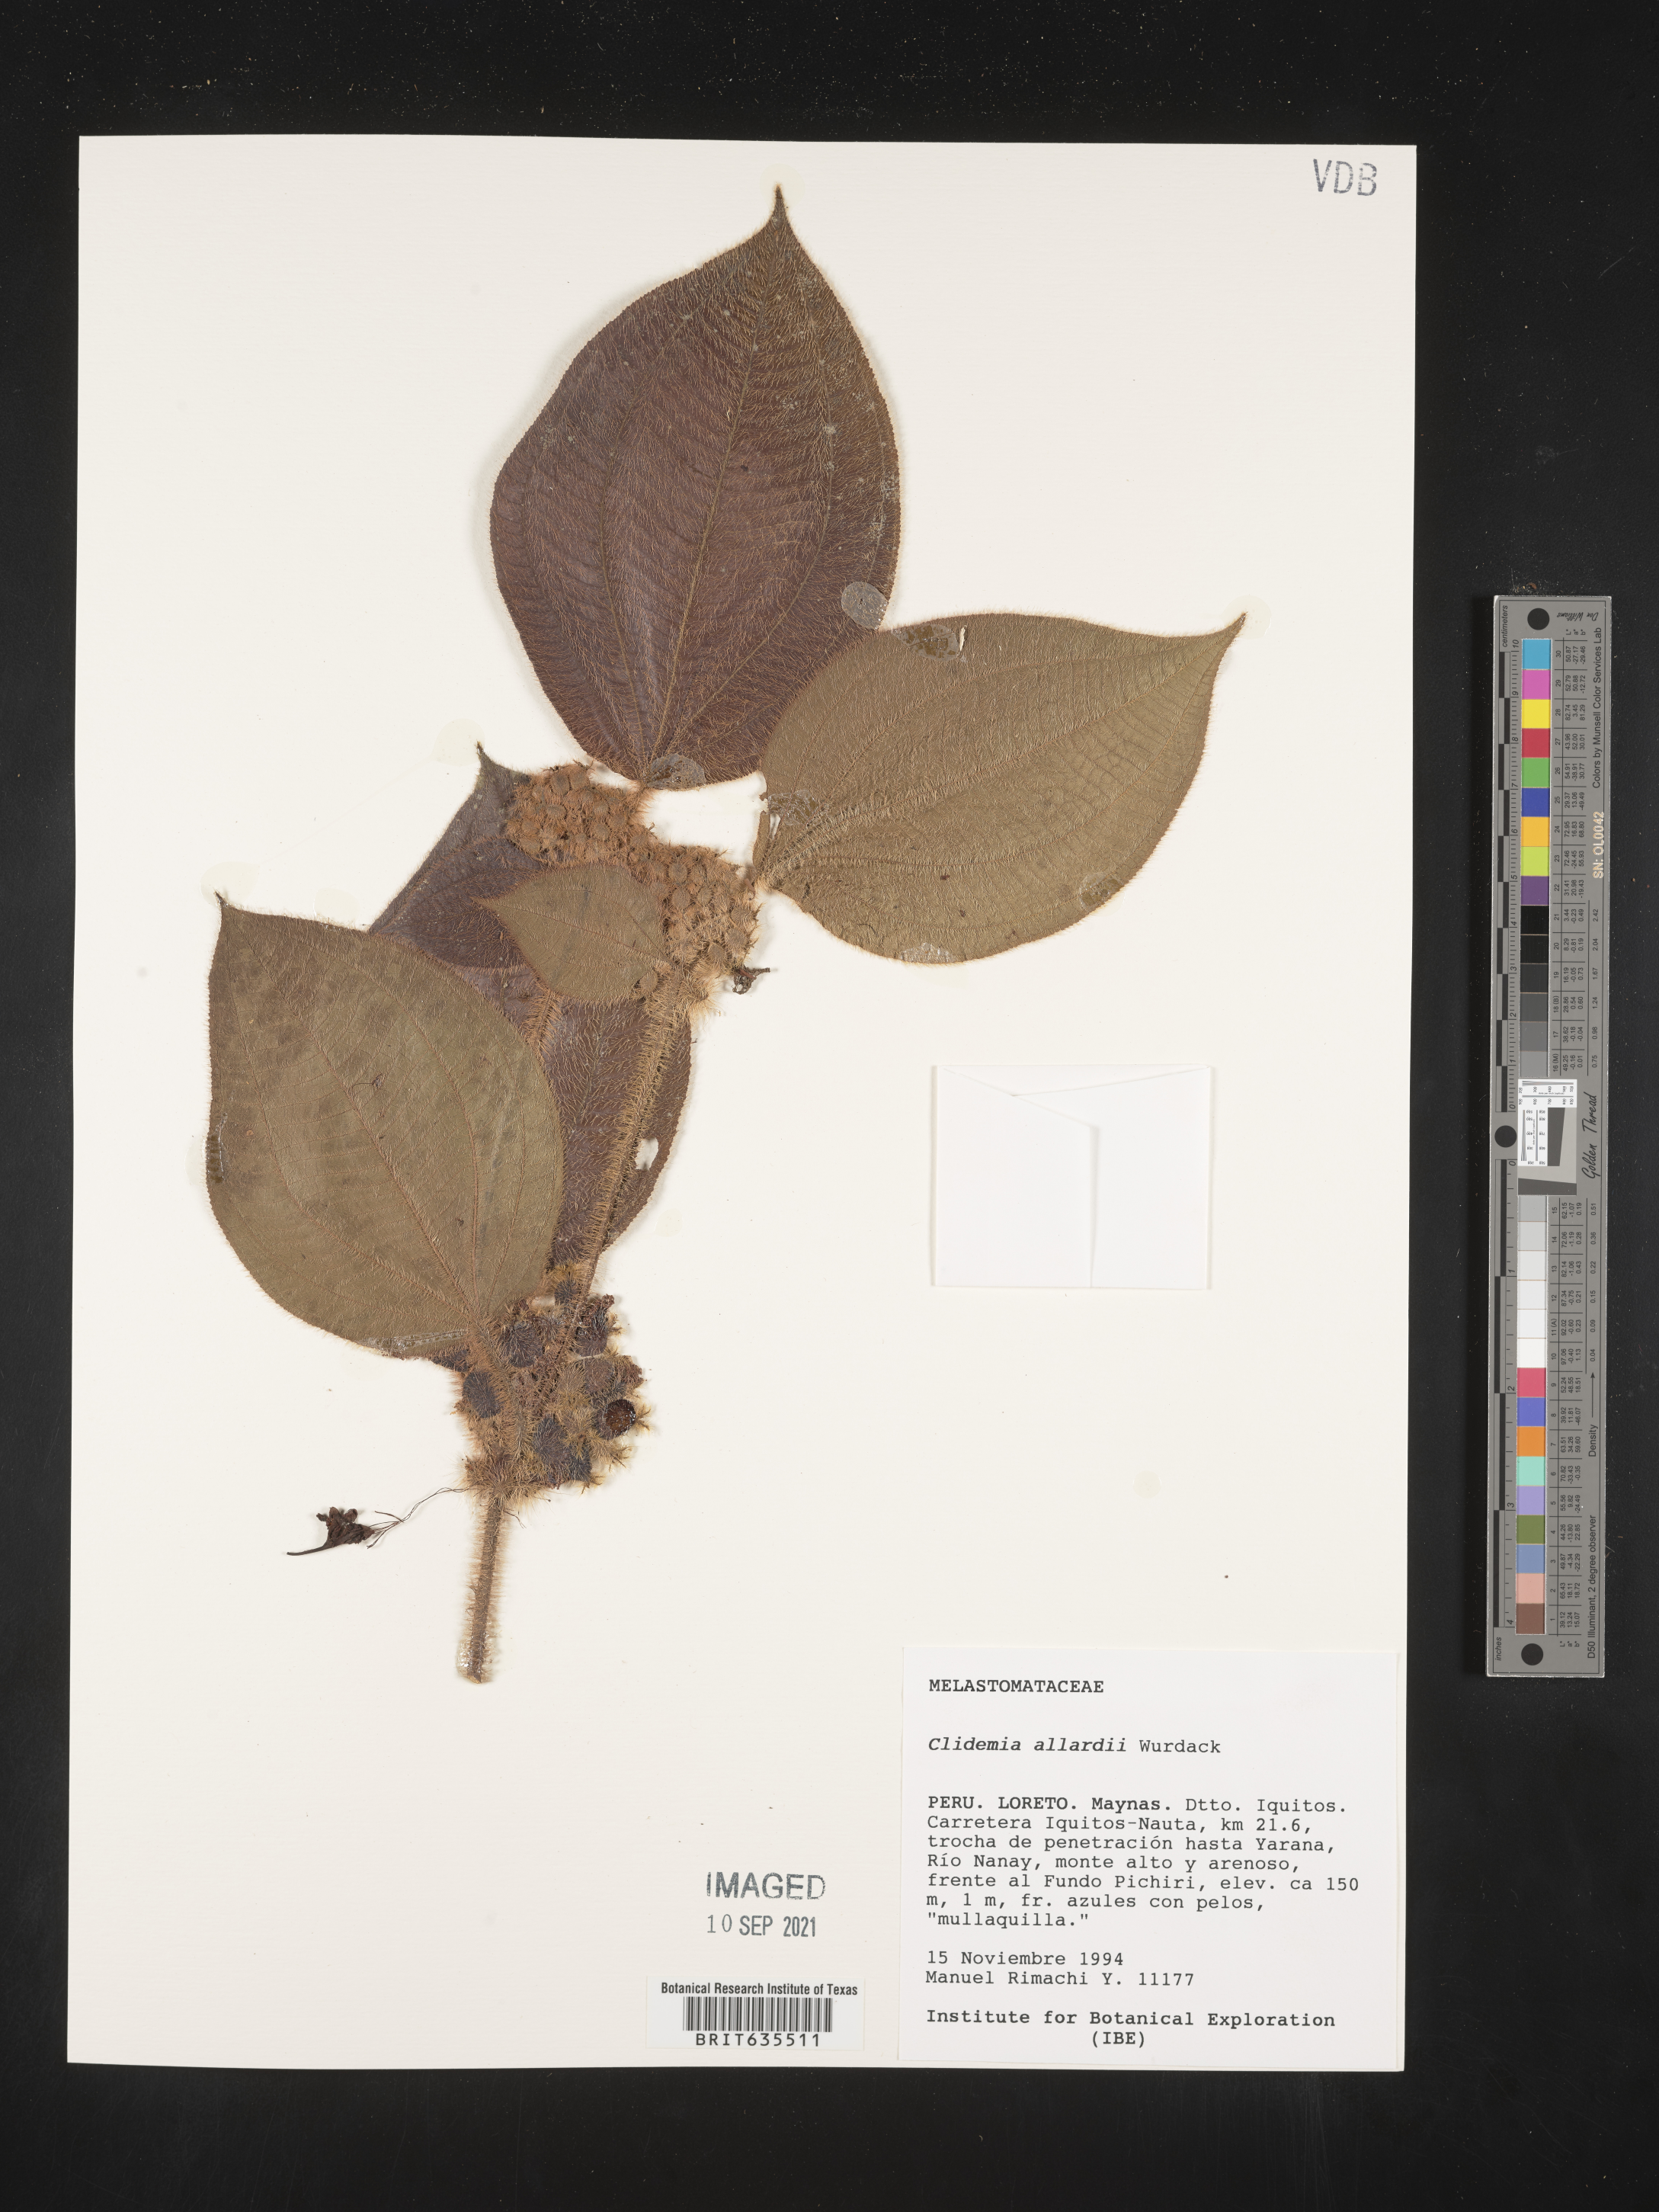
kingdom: Plantae
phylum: Tracheophyta
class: Magnoliopsida
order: Myrtales
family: Melastomataceae
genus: Miconia
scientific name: Miconia
